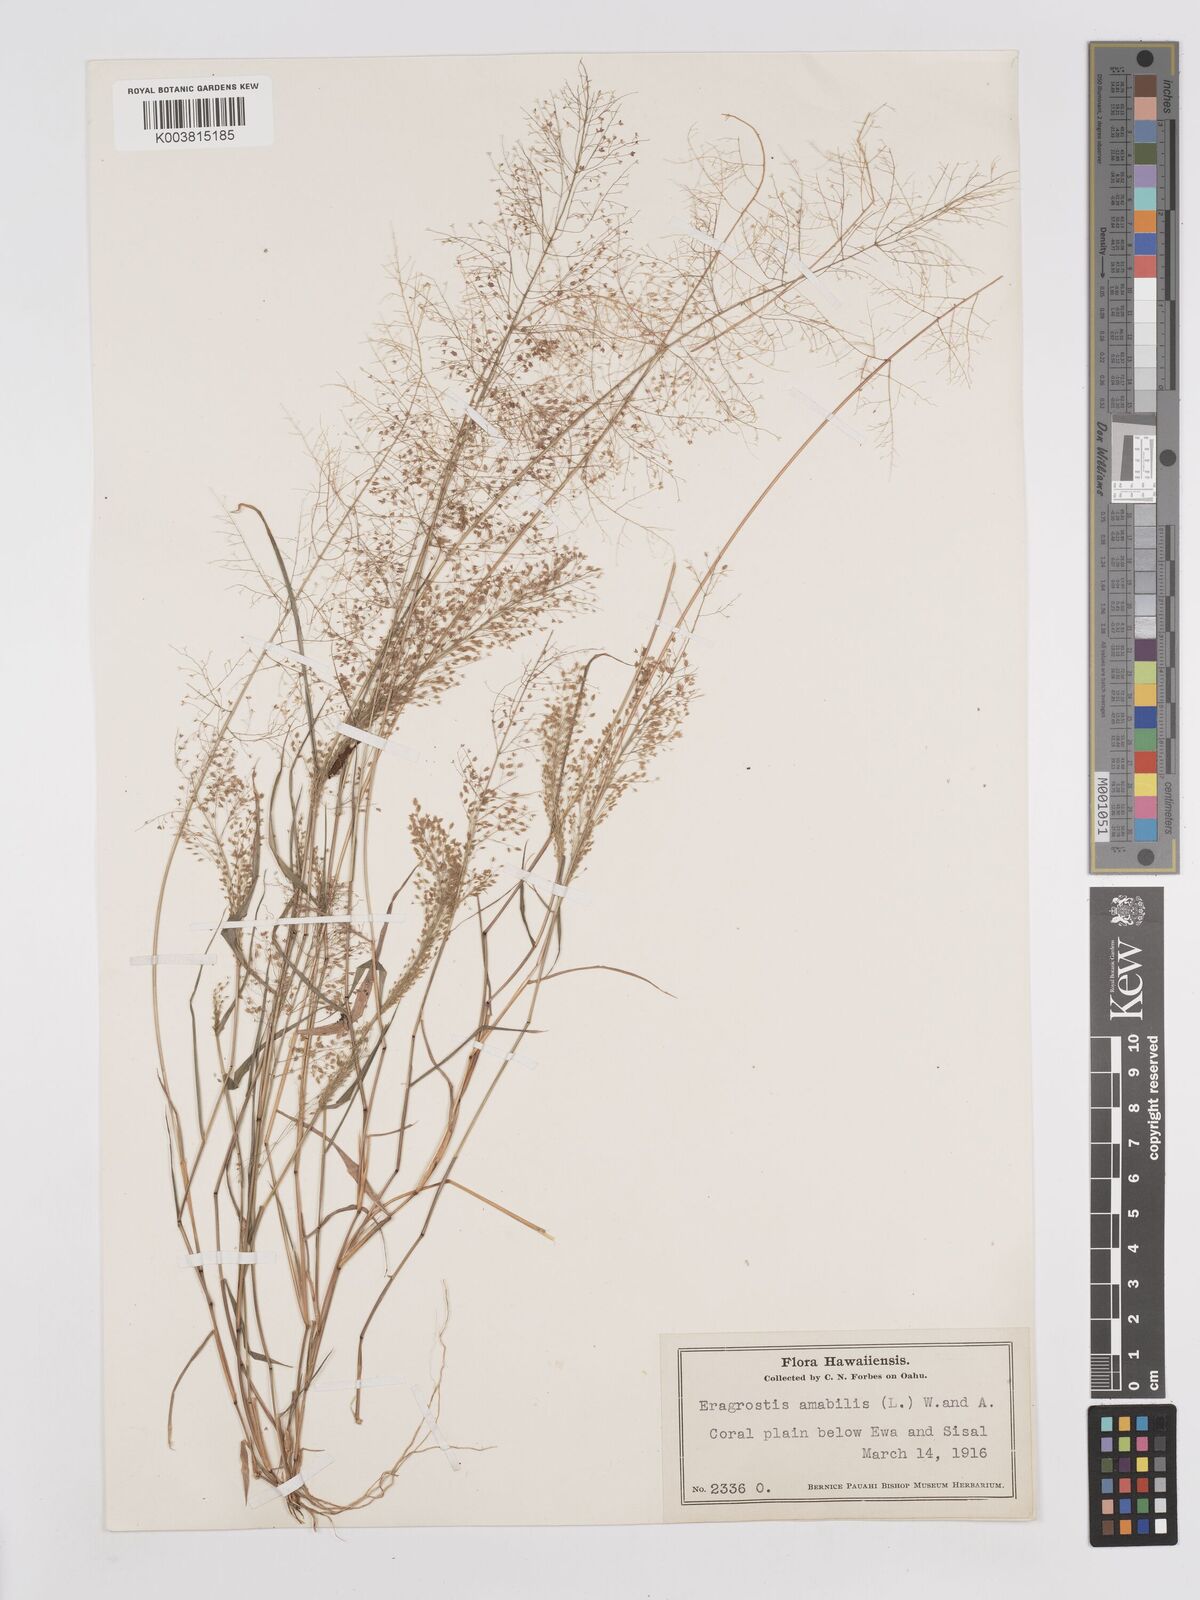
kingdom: Plantae
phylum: Tracheophyta
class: Liliopsida
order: Poales
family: Poaceae
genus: Eragrostis
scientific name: Eragrostis tenella
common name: Japanese lovegrass
